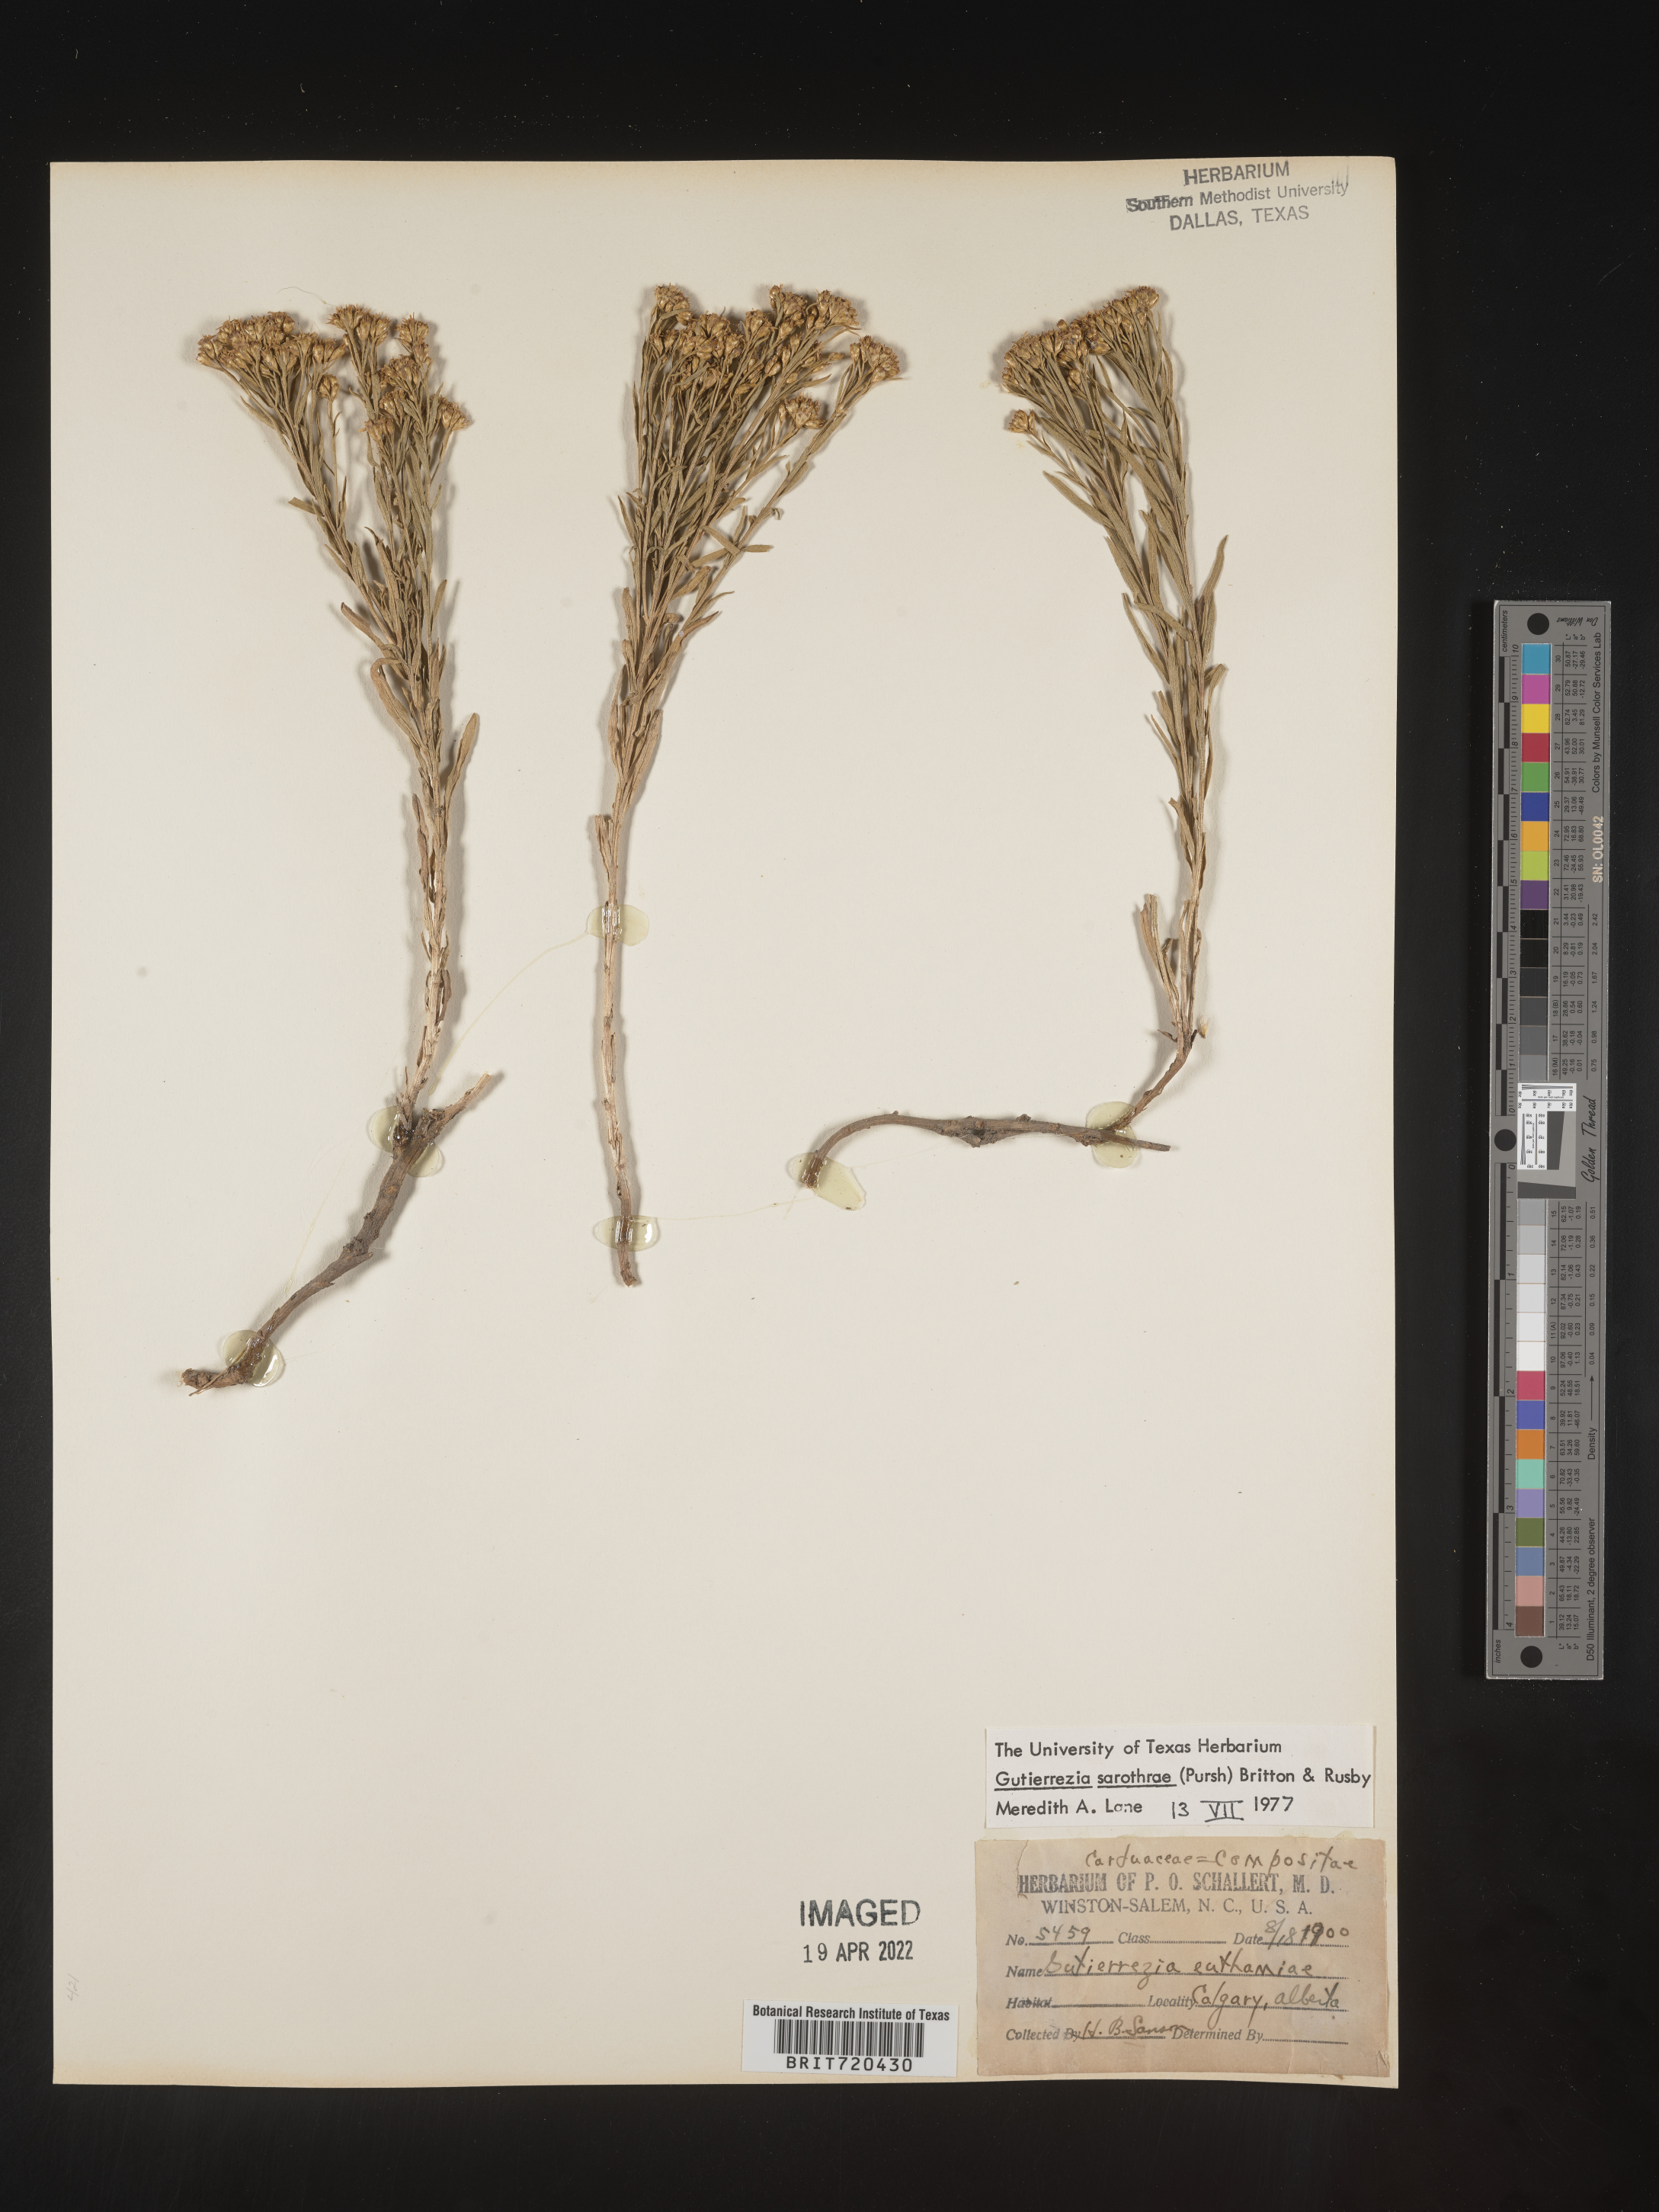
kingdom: Plantae
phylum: Tracheophyta
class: Magnoliopsida
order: Asterales
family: Asteraceae
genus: Gutierrezia
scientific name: Gutierrezia sarothrae
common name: Broom snakeweed
